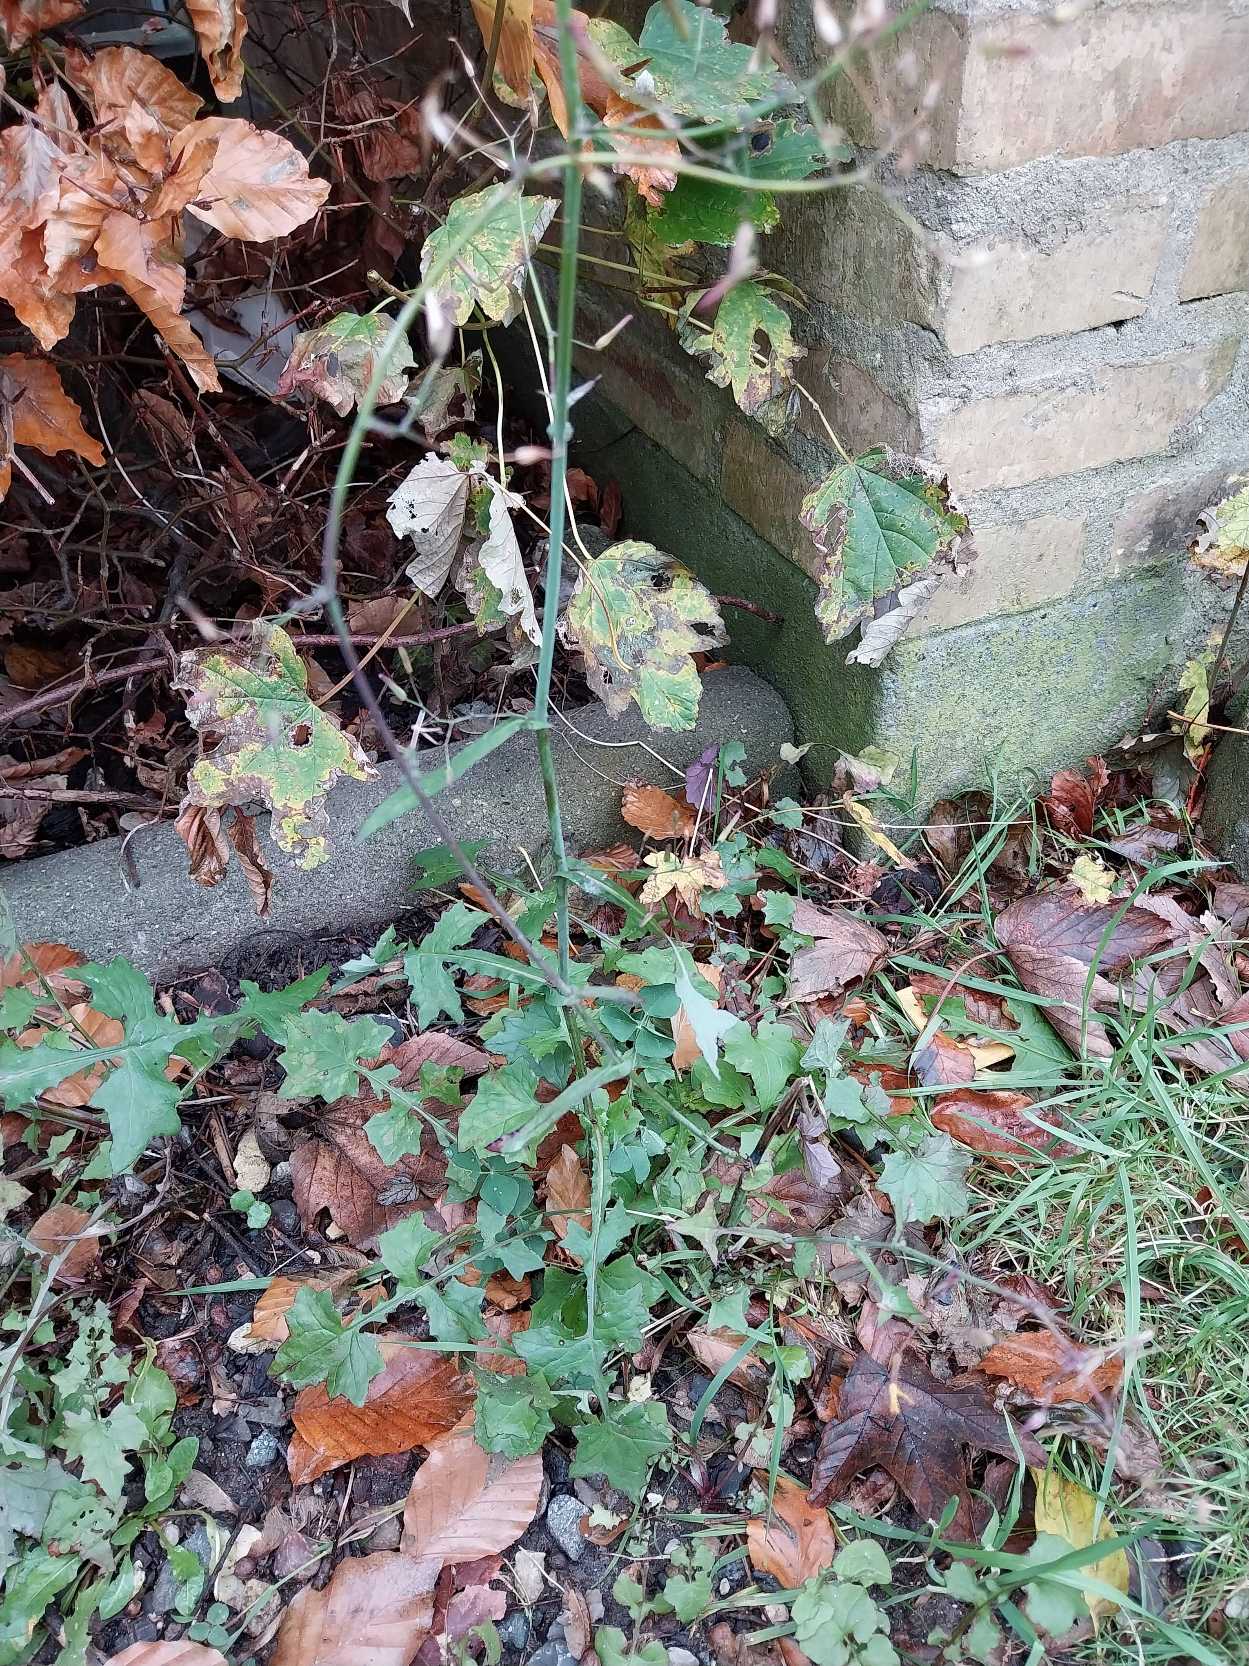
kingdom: Plantae
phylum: Tracheophyta
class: Magnoliopsida
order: Asterales
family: Asteraceae
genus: Mycelis
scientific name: Mycelis muralis
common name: Skov-salat
